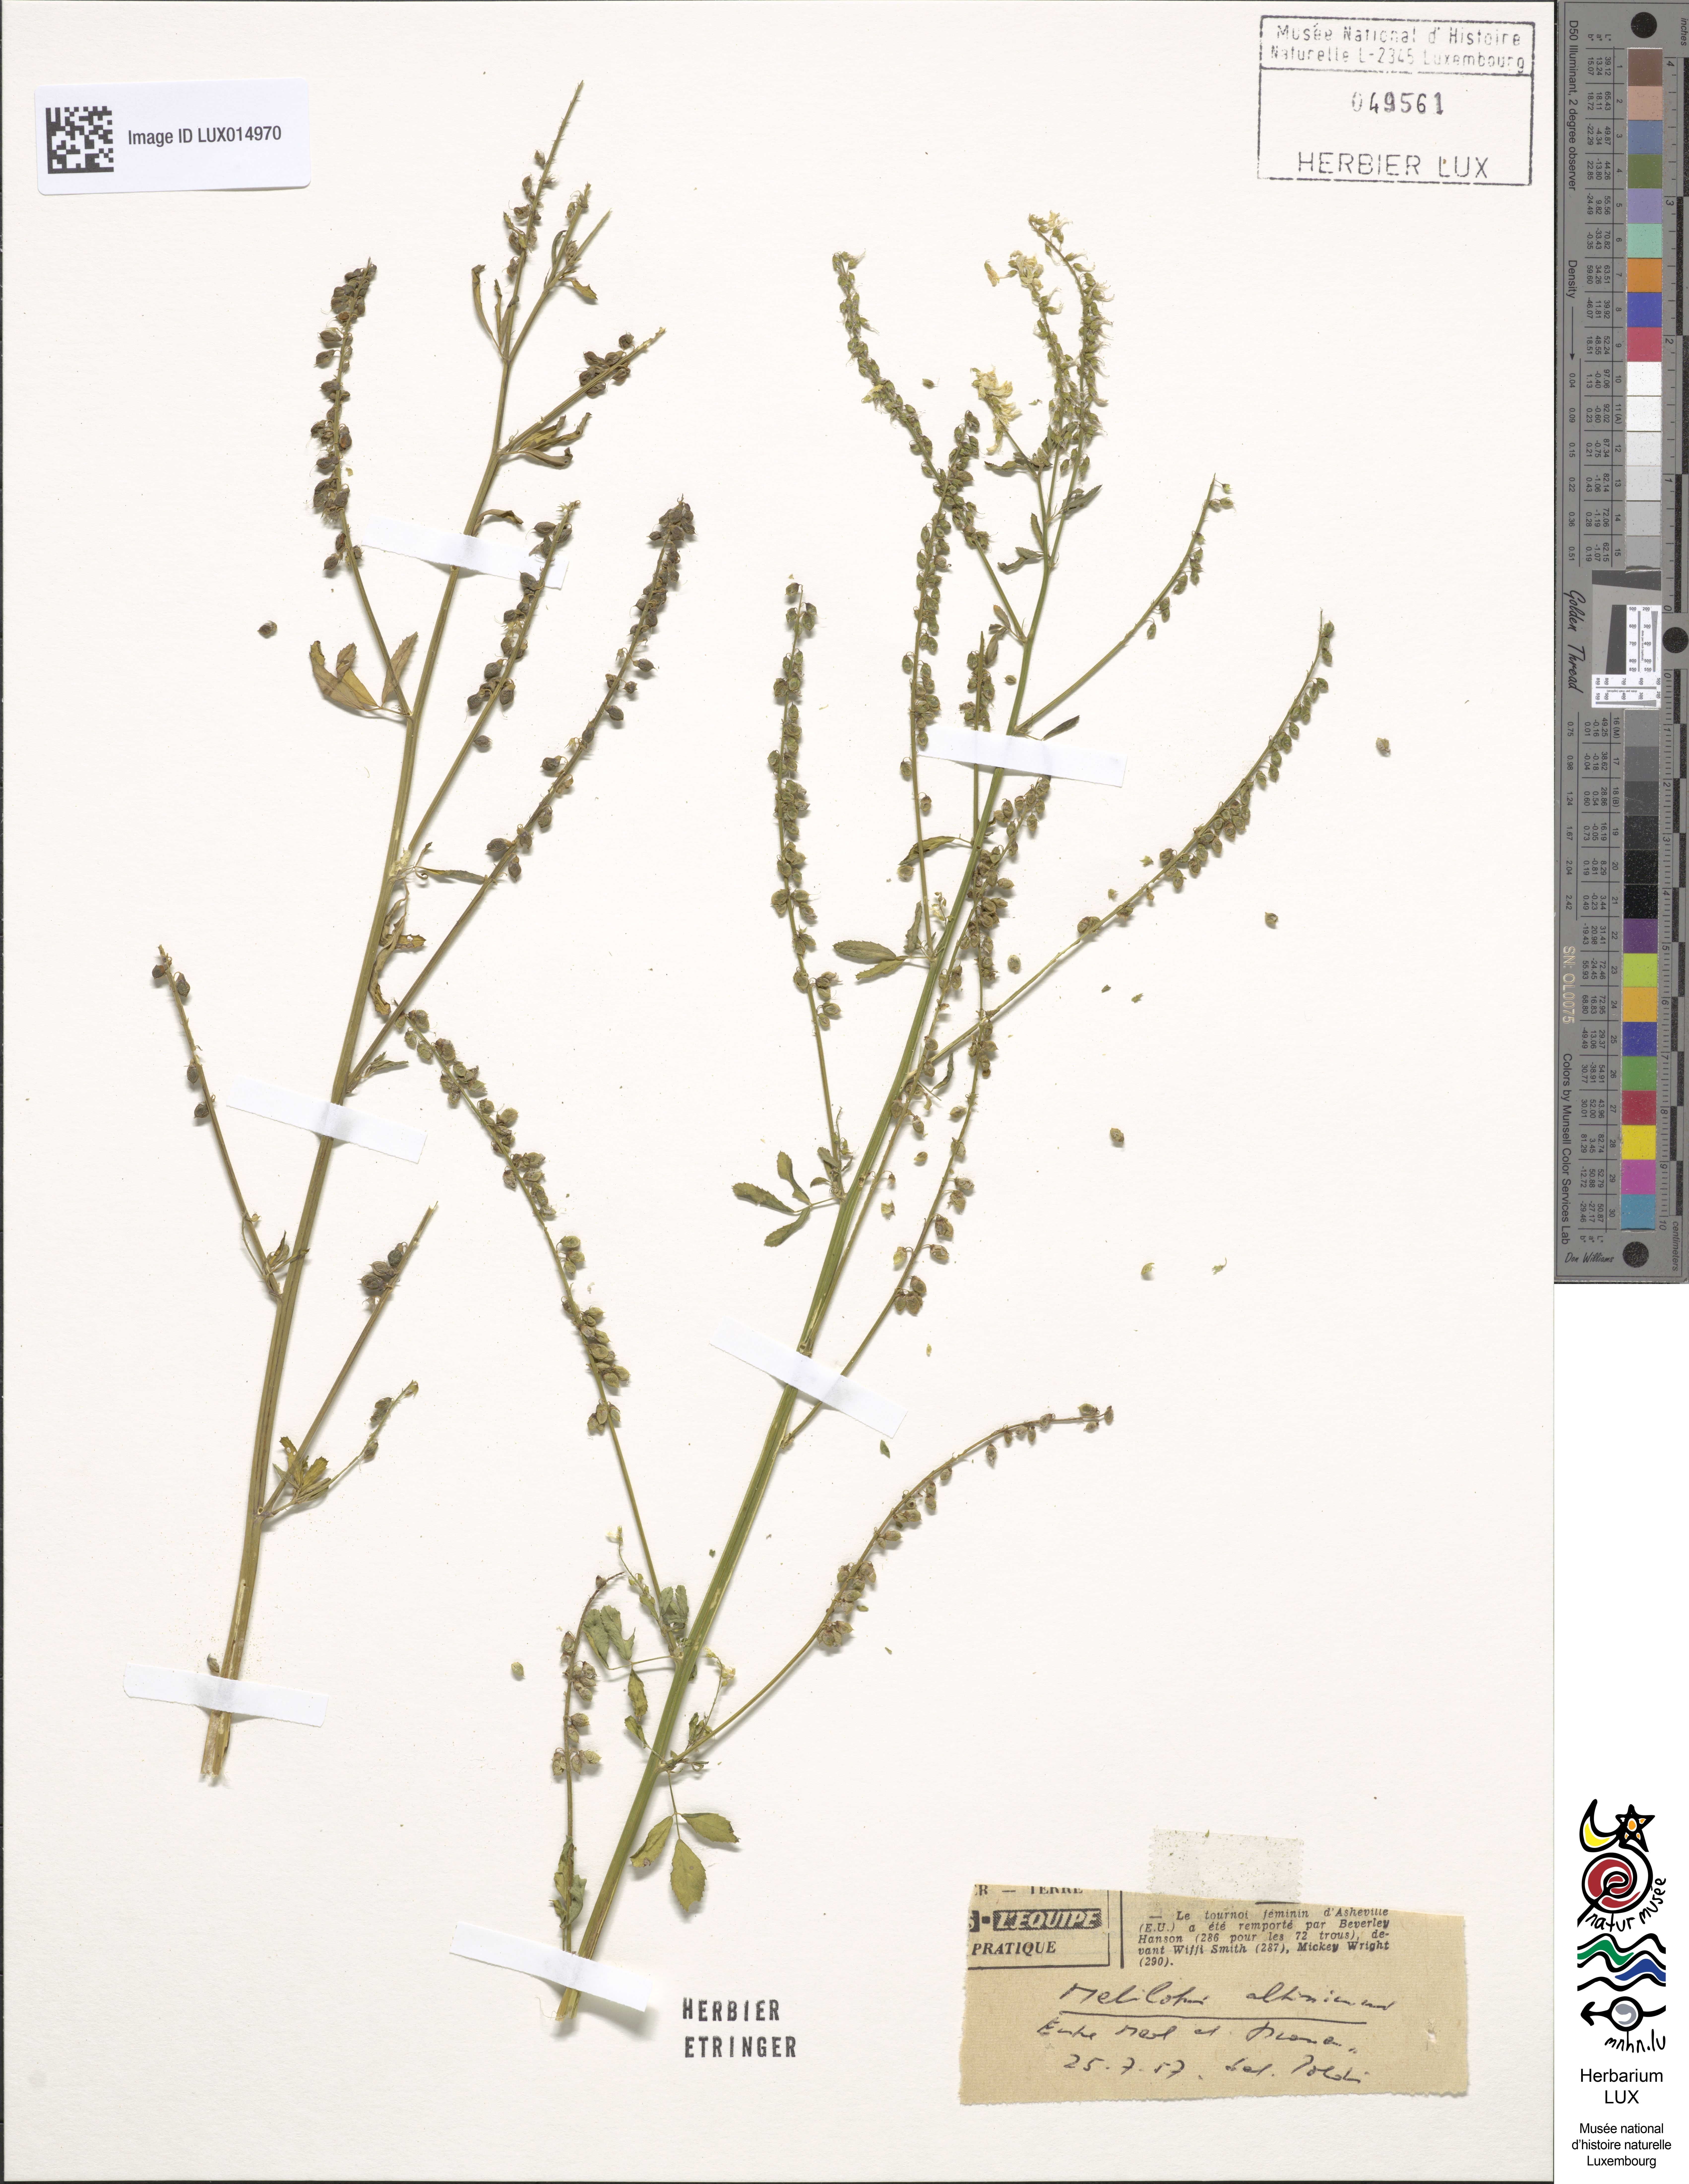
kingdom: Plantae
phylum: Tracheophyta
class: Magnoliopsida
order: Fabales
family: Fabaceae
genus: Melilotus
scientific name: Melilotus altissimus
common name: Tall melilot
